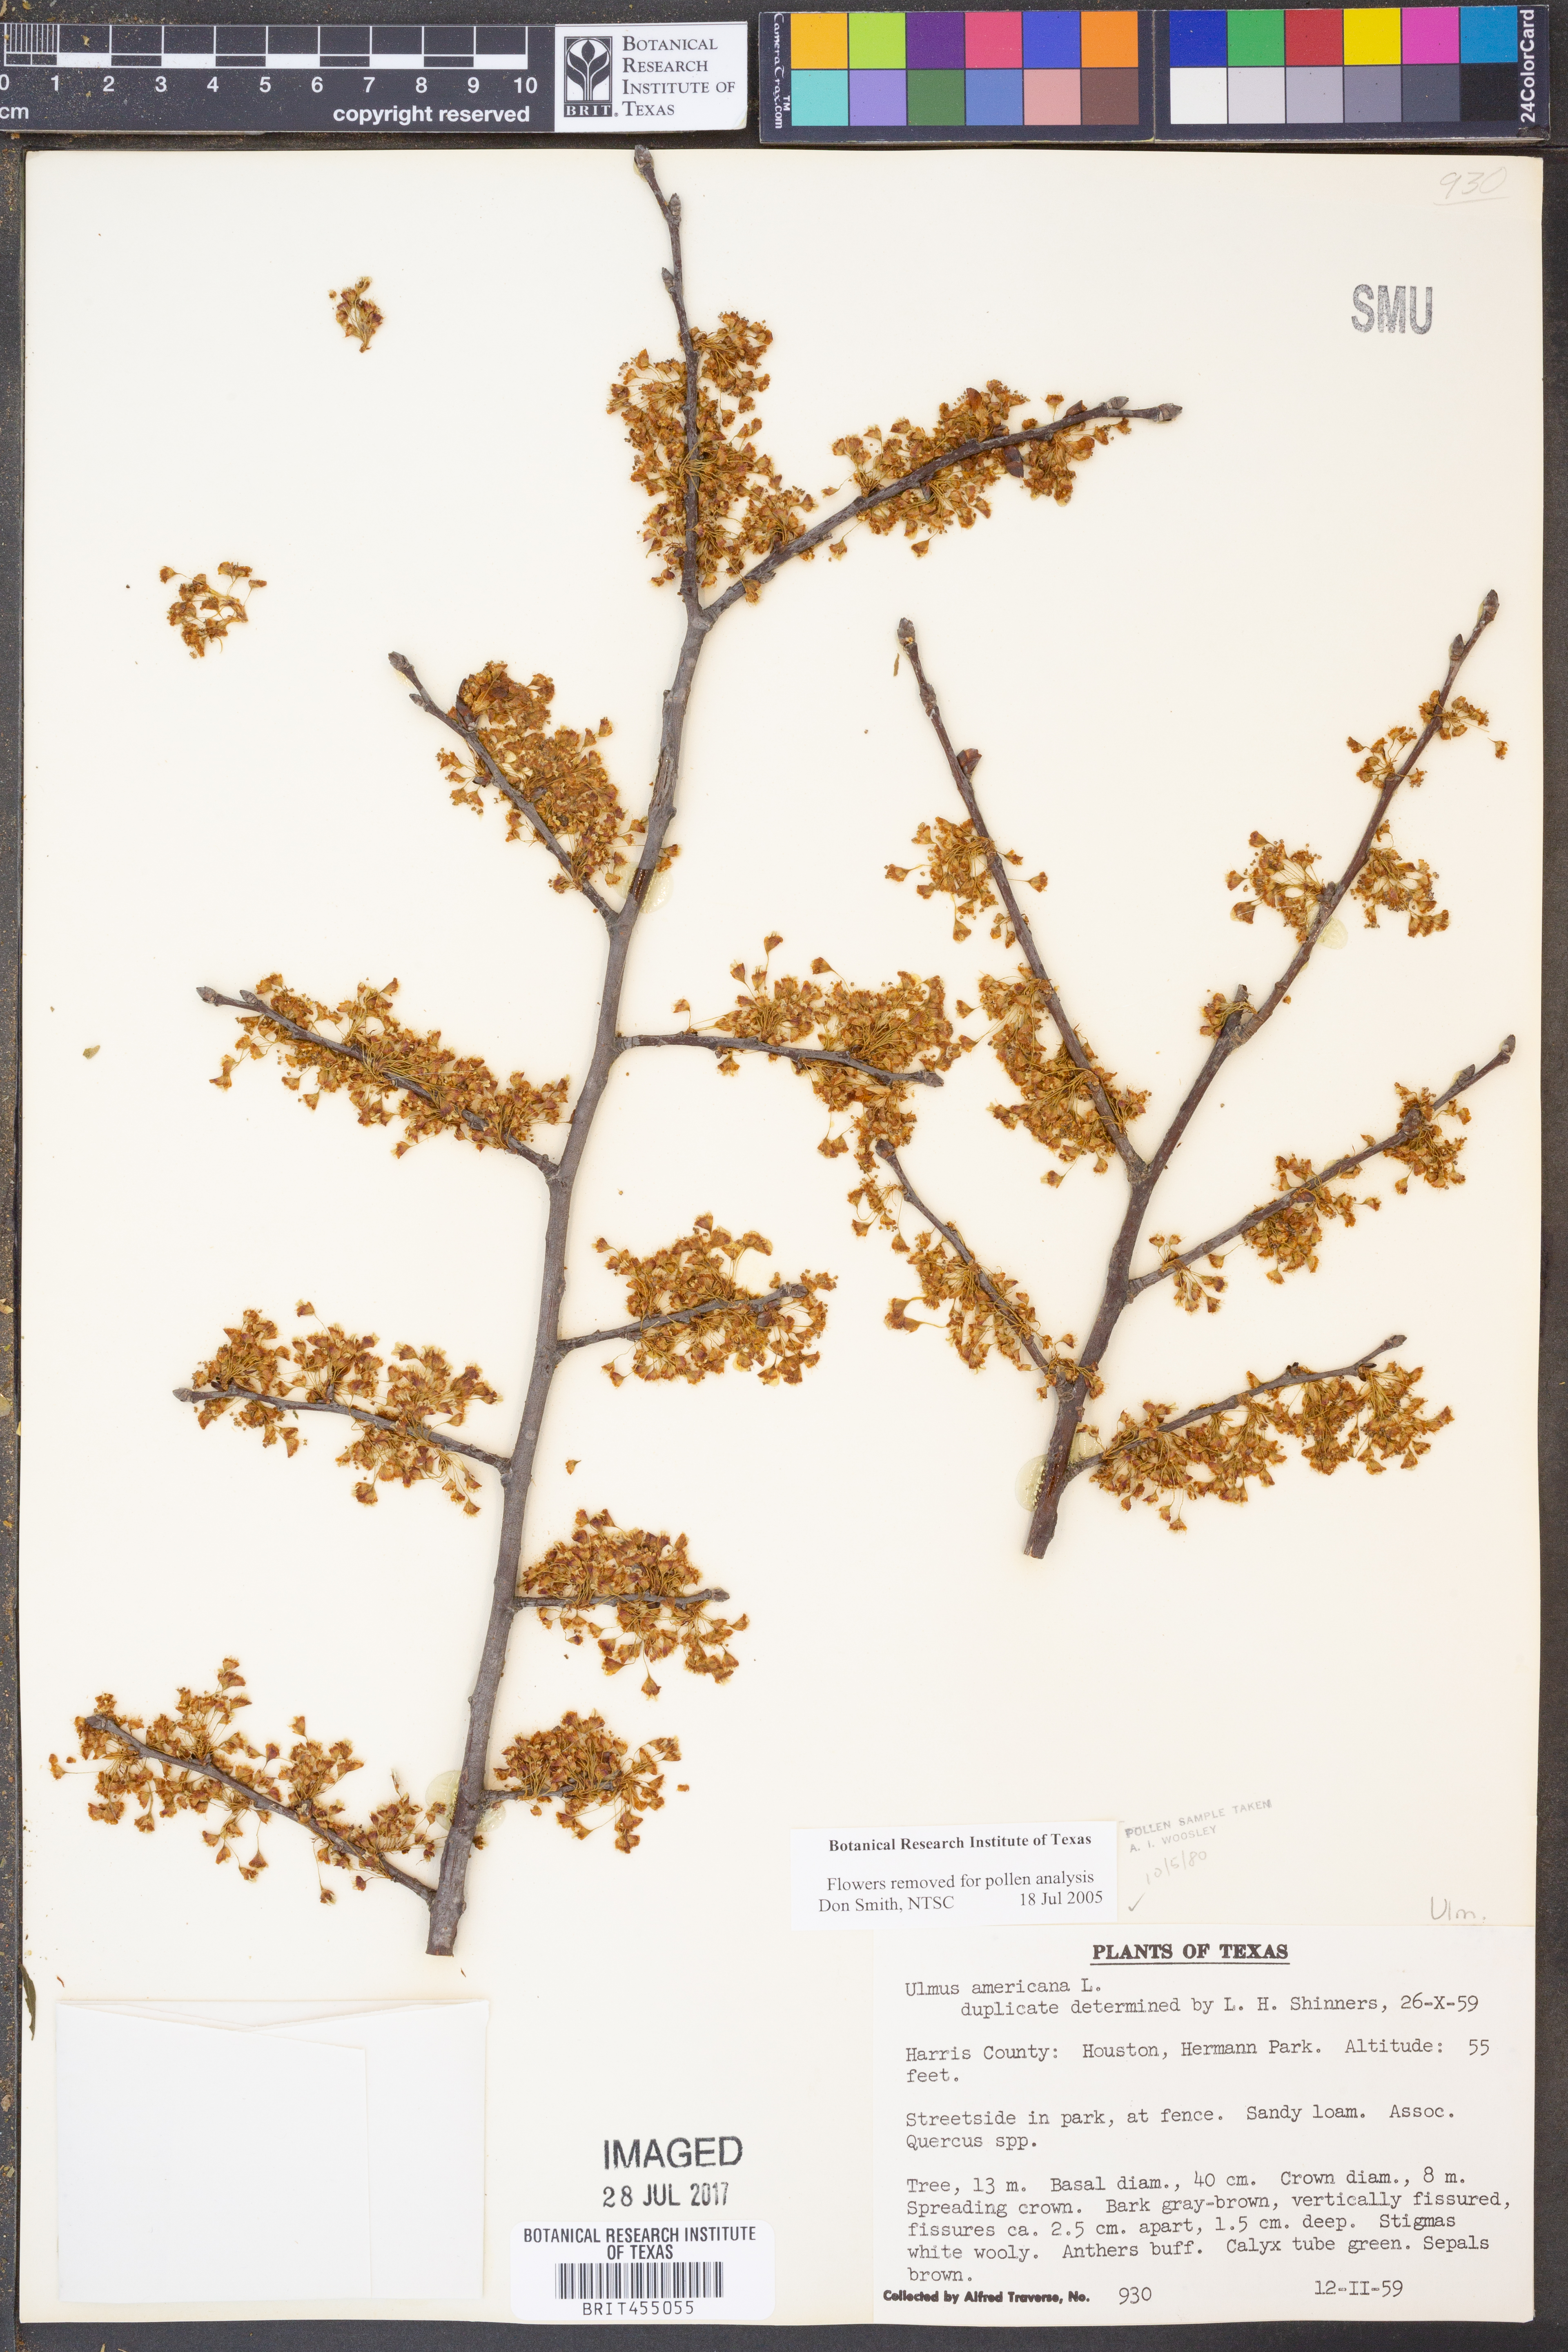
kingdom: Plantae
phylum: Tracheophyta
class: Magnoliopsida
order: Rosales
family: Ulmaceae
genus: Ulmus
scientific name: Ulmus americana
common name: American elm
